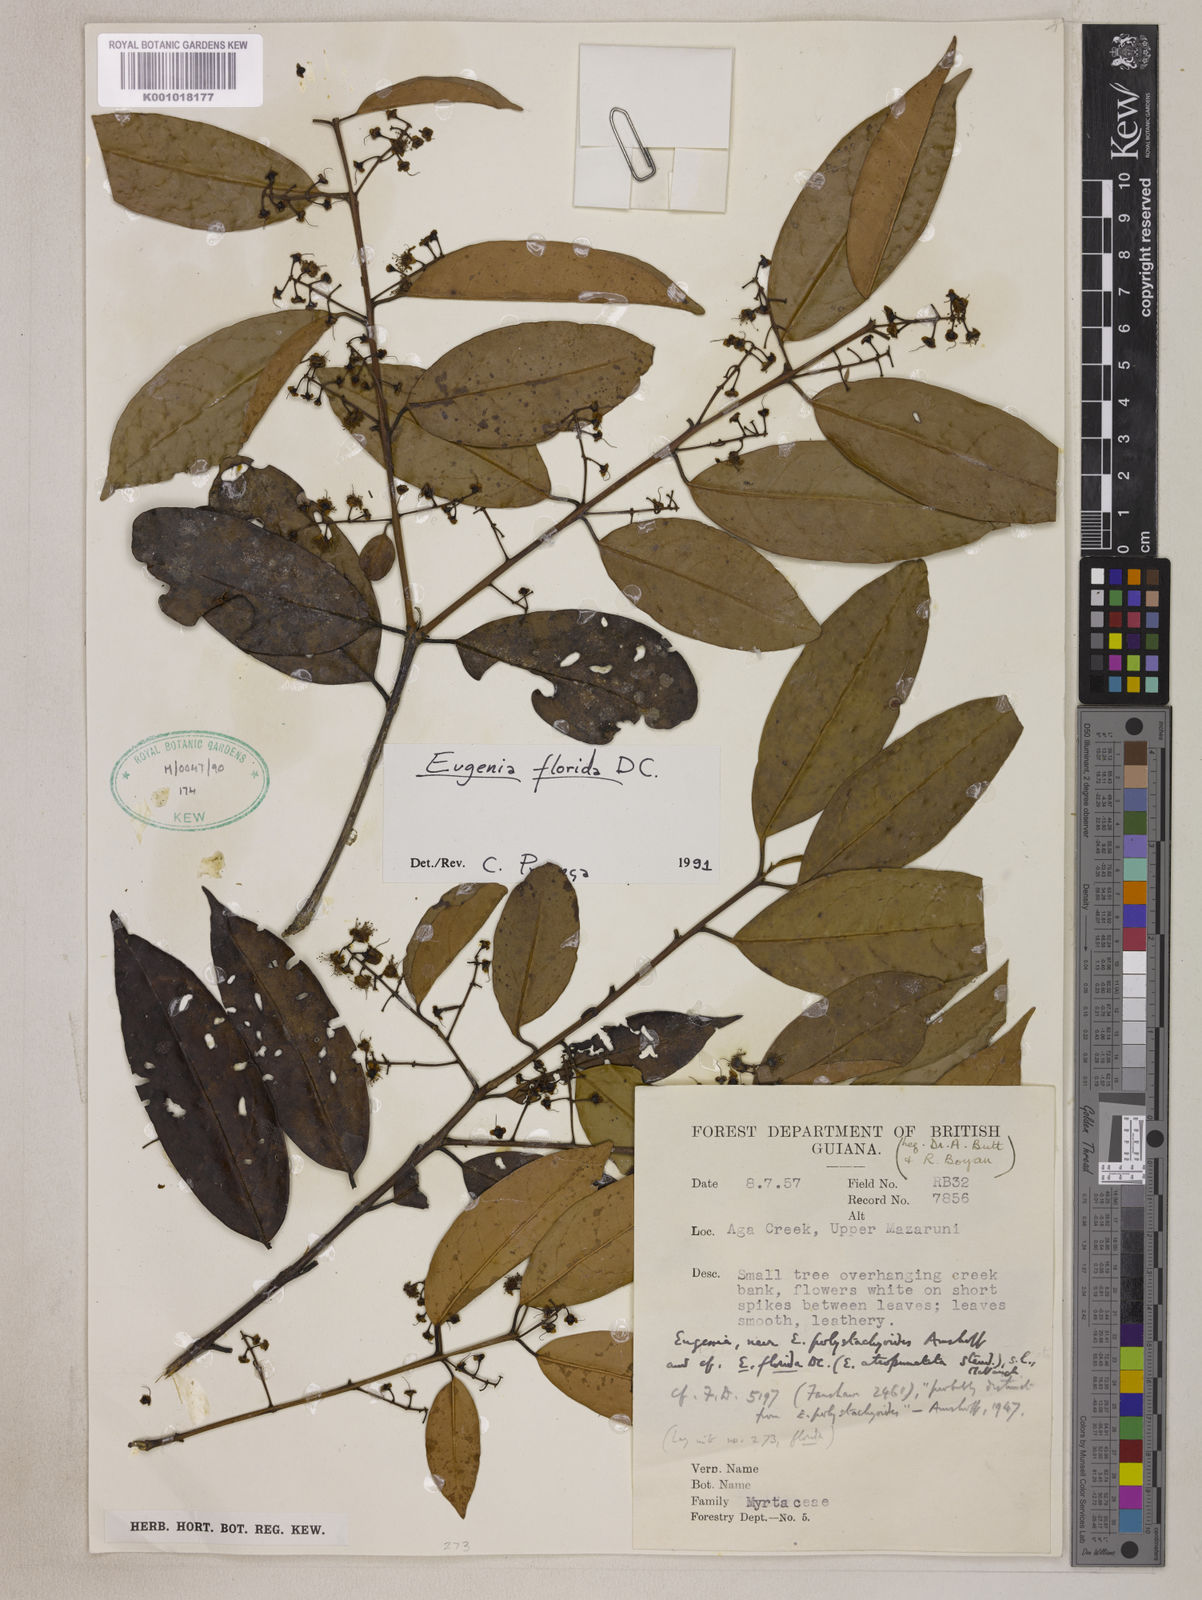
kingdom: Plantae
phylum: Tracheophyta
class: Magnoliopsida
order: Myrtales
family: Myrtaceae
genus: Eugenia
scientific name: Eugenia florida
